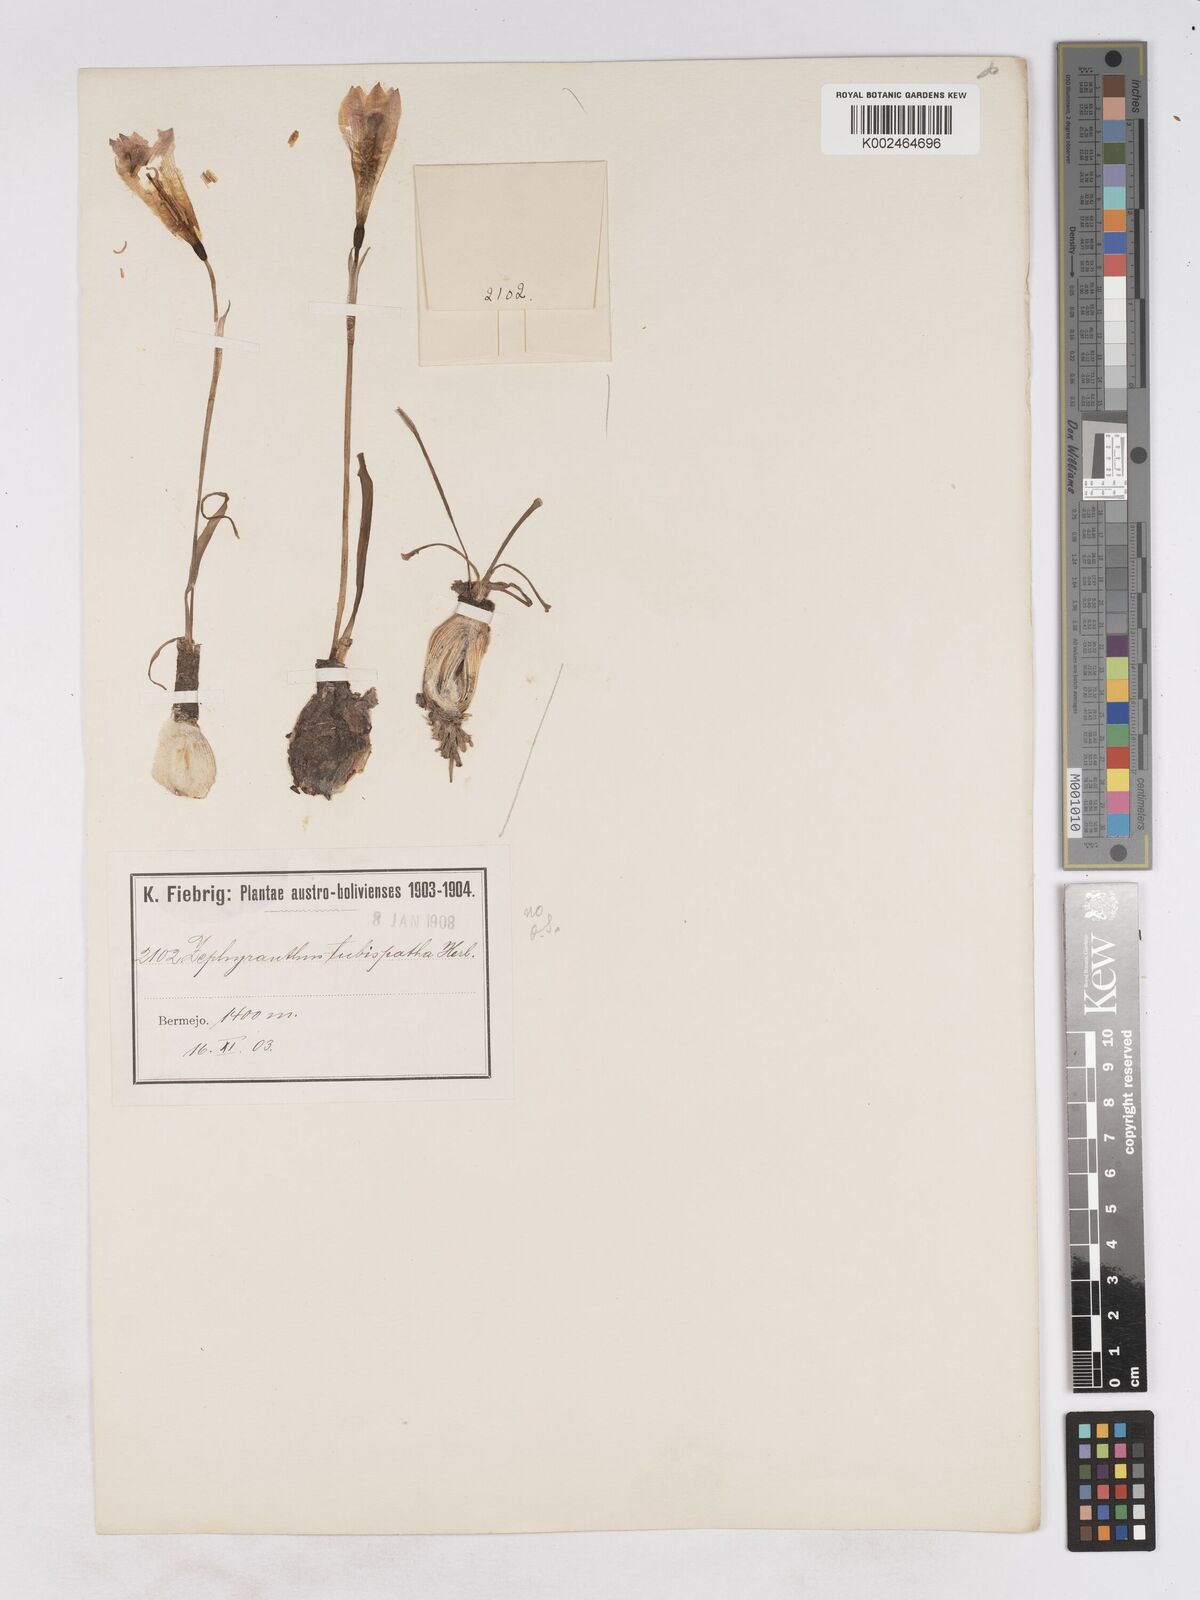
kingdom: Plantae
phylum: Tracheophyta
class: Liliopsida
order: Asparagales
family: Amaryllidaceae
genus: Zephyranthes
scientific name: Zephyranthes
